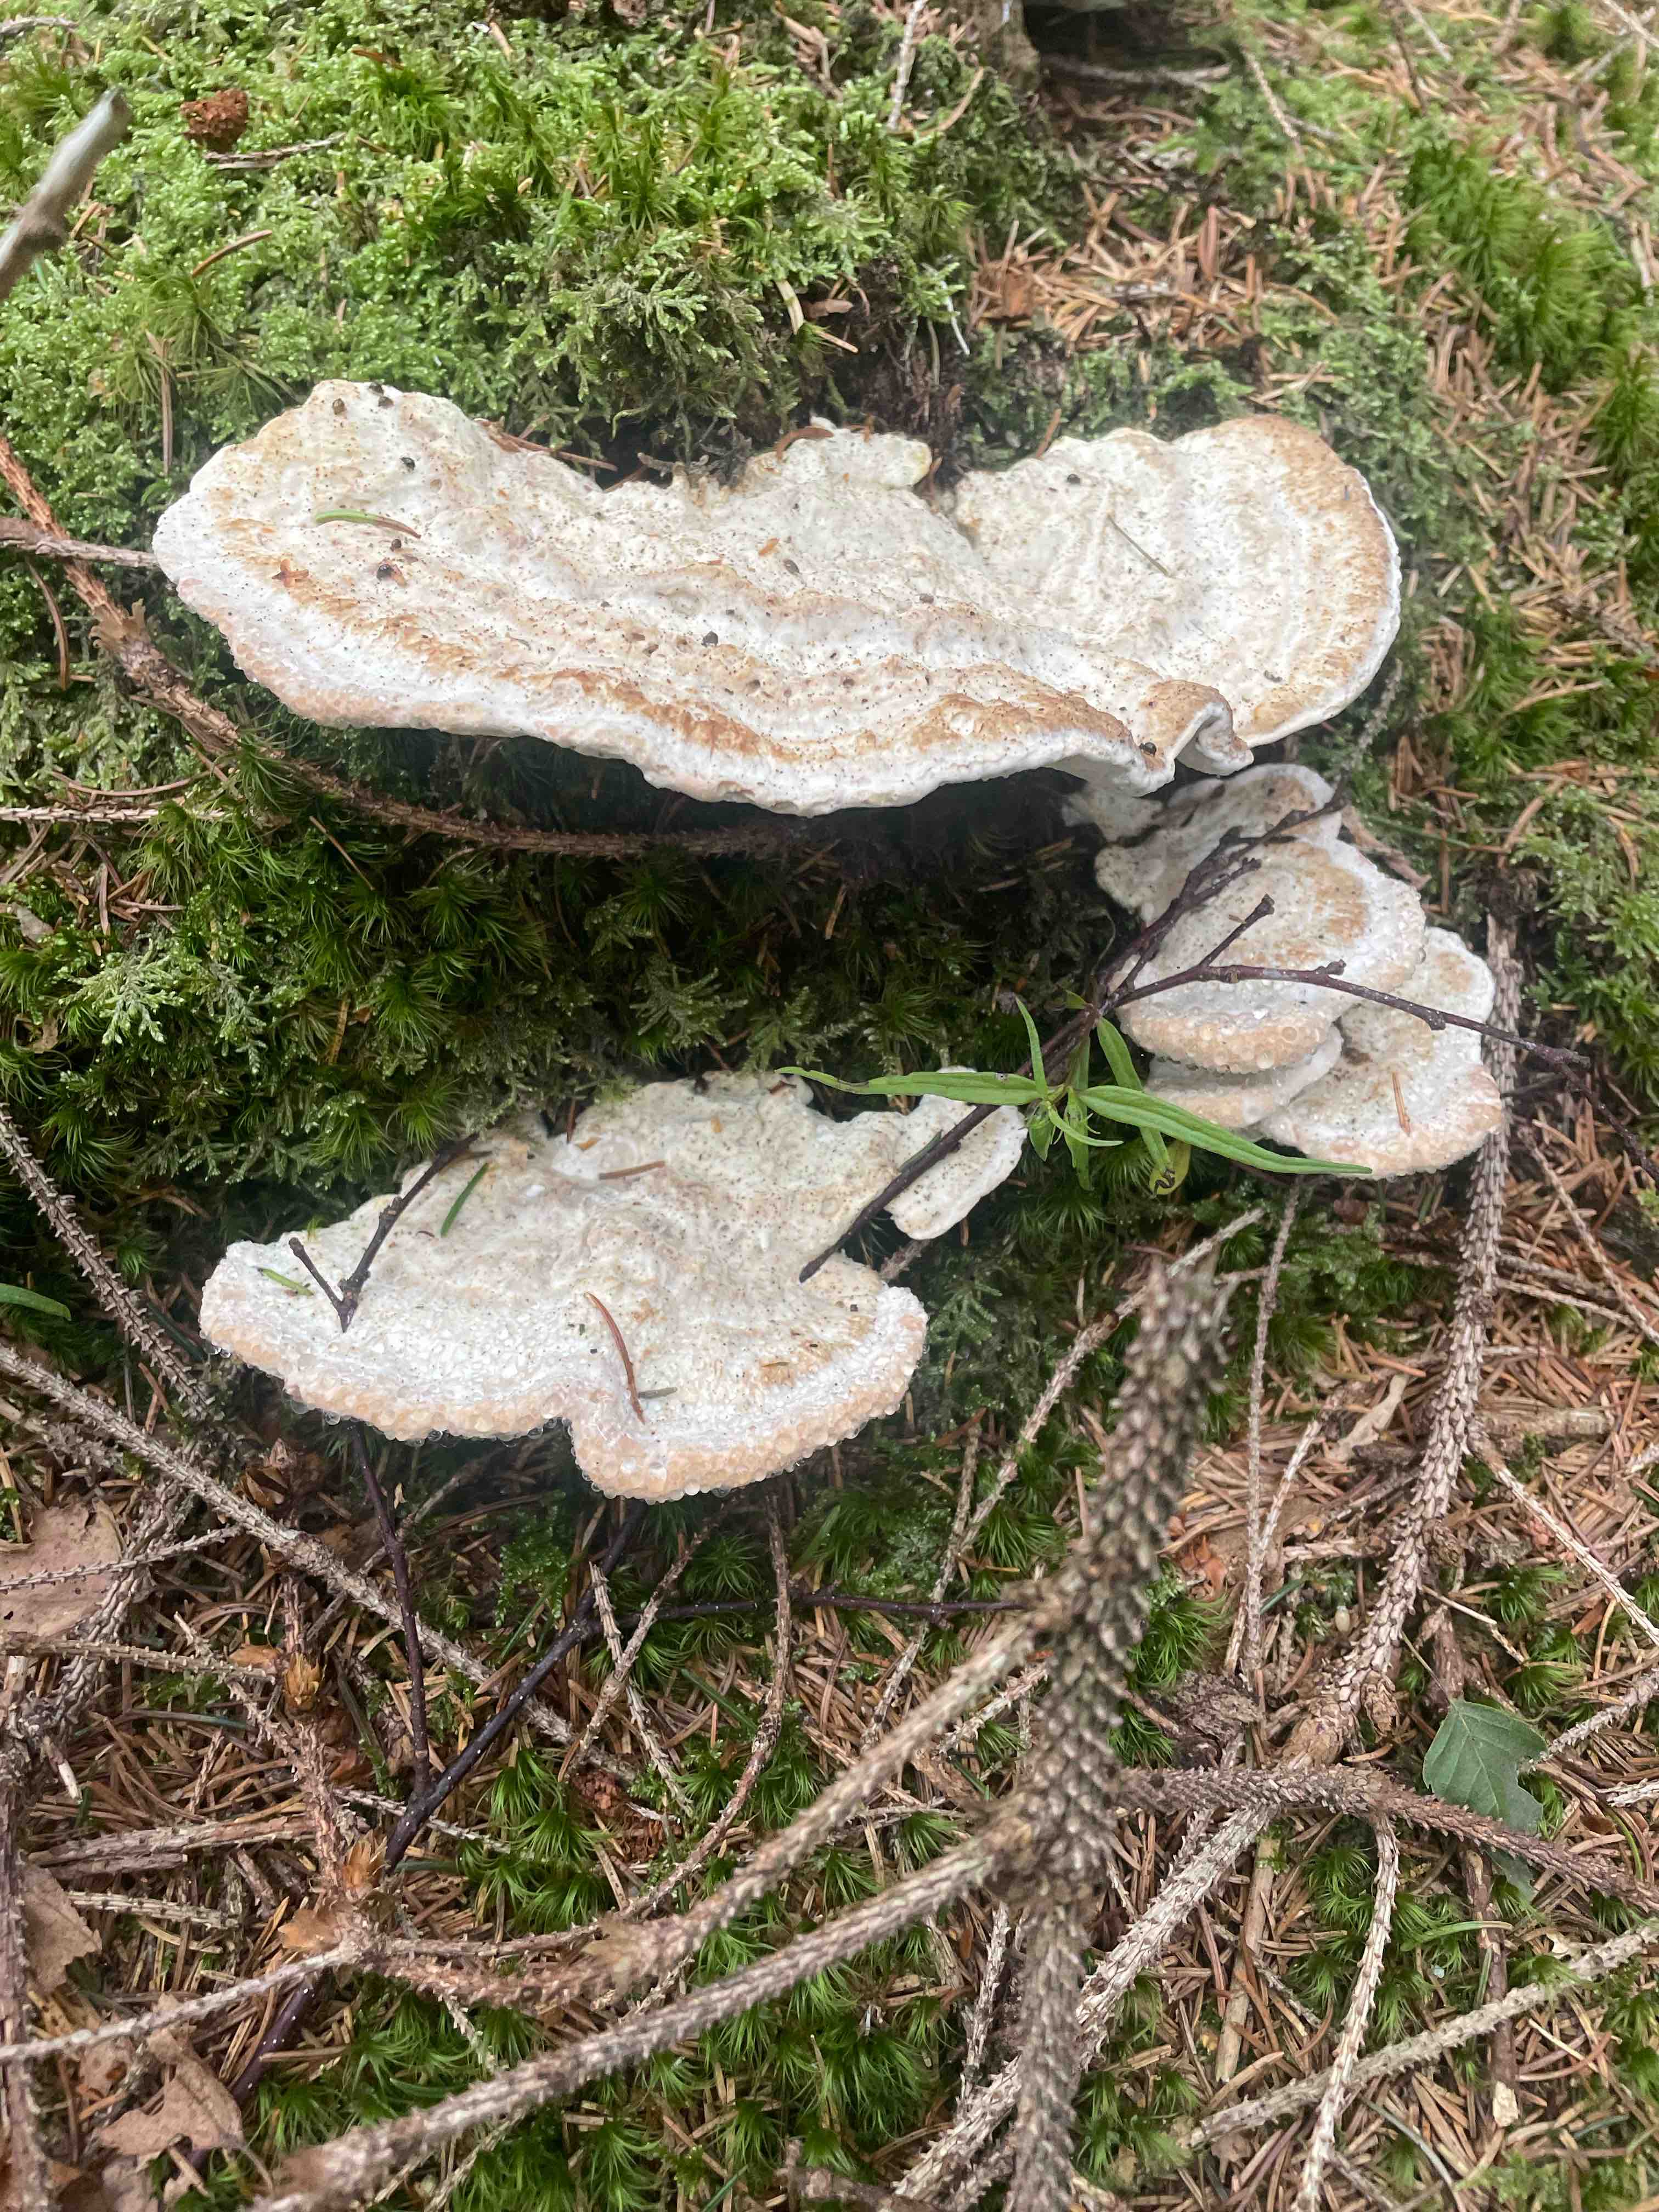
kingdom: Fungi
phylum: Basidiomycota
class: Agaricomycetes
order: Polyporales
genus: Calcipostia
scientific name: Calcipostia guttulata
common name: dråbe-kødporesvamp
